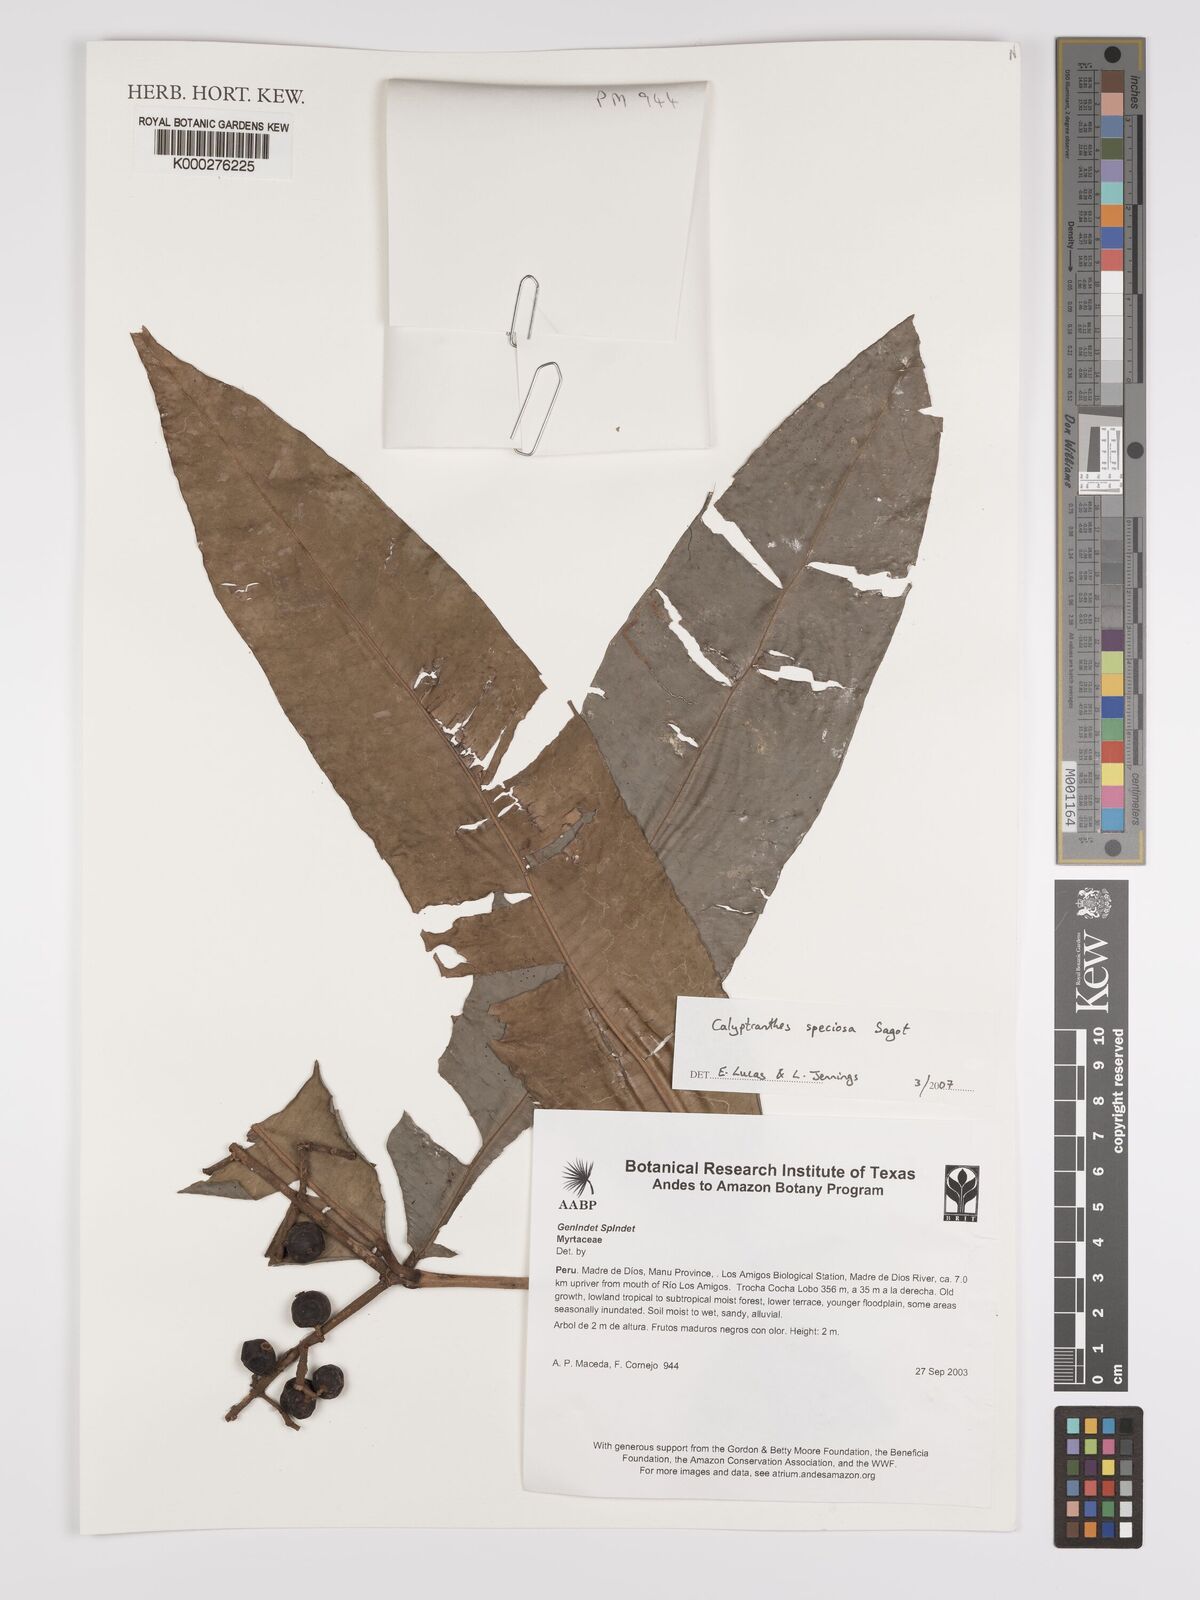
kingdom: Plantae
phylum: Tracheophyta
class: Magnoliopsida
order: Myrtales
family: Myrtaceae
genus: Myrcia
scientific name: Myrcia neospeciosa
